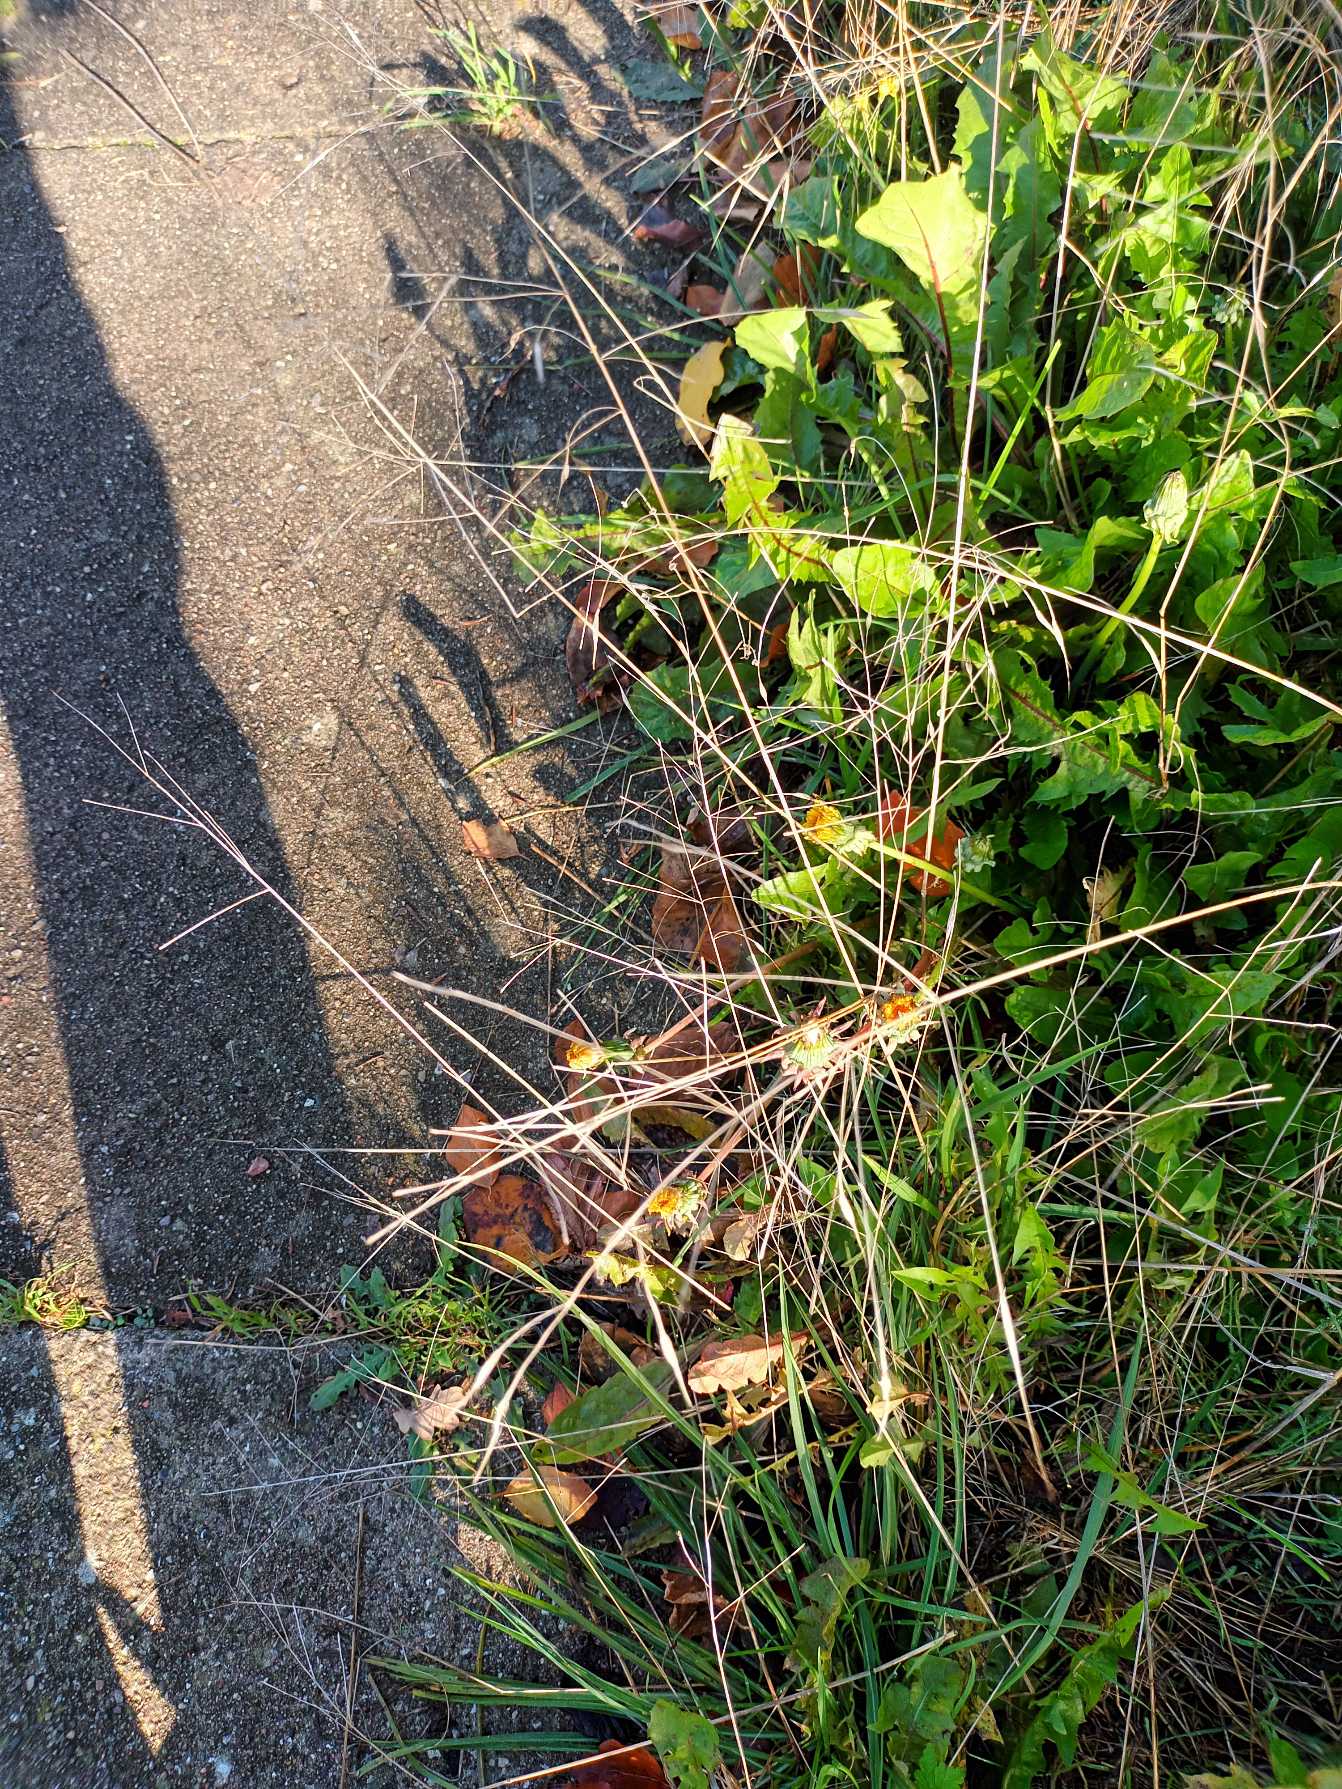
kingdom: Plantae
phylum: Tracheophyta
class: Liliopsida
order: Poales
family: Poaceae
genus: Bromus
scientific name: Bromus sterilis
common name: Gold hejre
